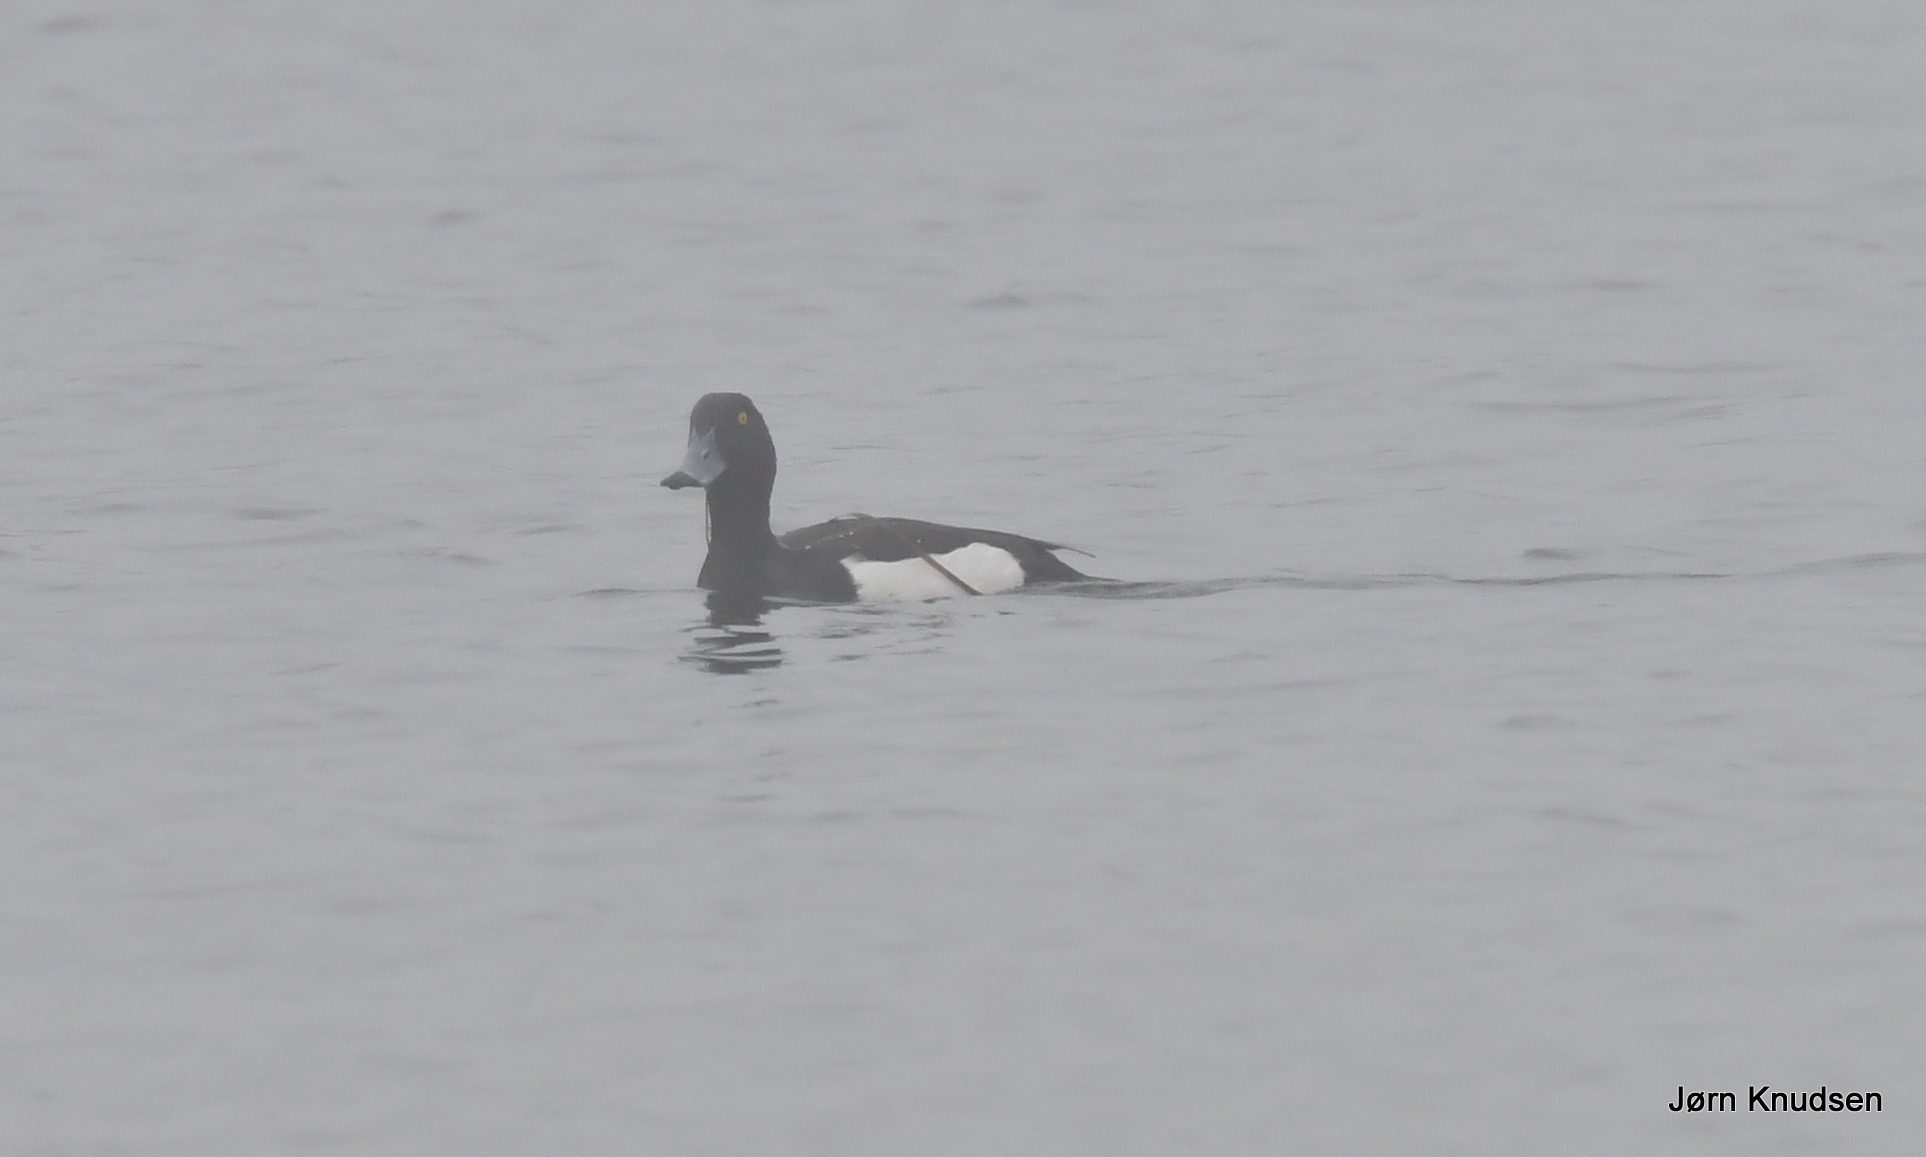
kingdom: Animalia
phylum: Chordata
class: Aves
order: Anseriformes
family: Anatidae
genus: Aythya
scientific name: Aythya fuligula
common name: Troldand
